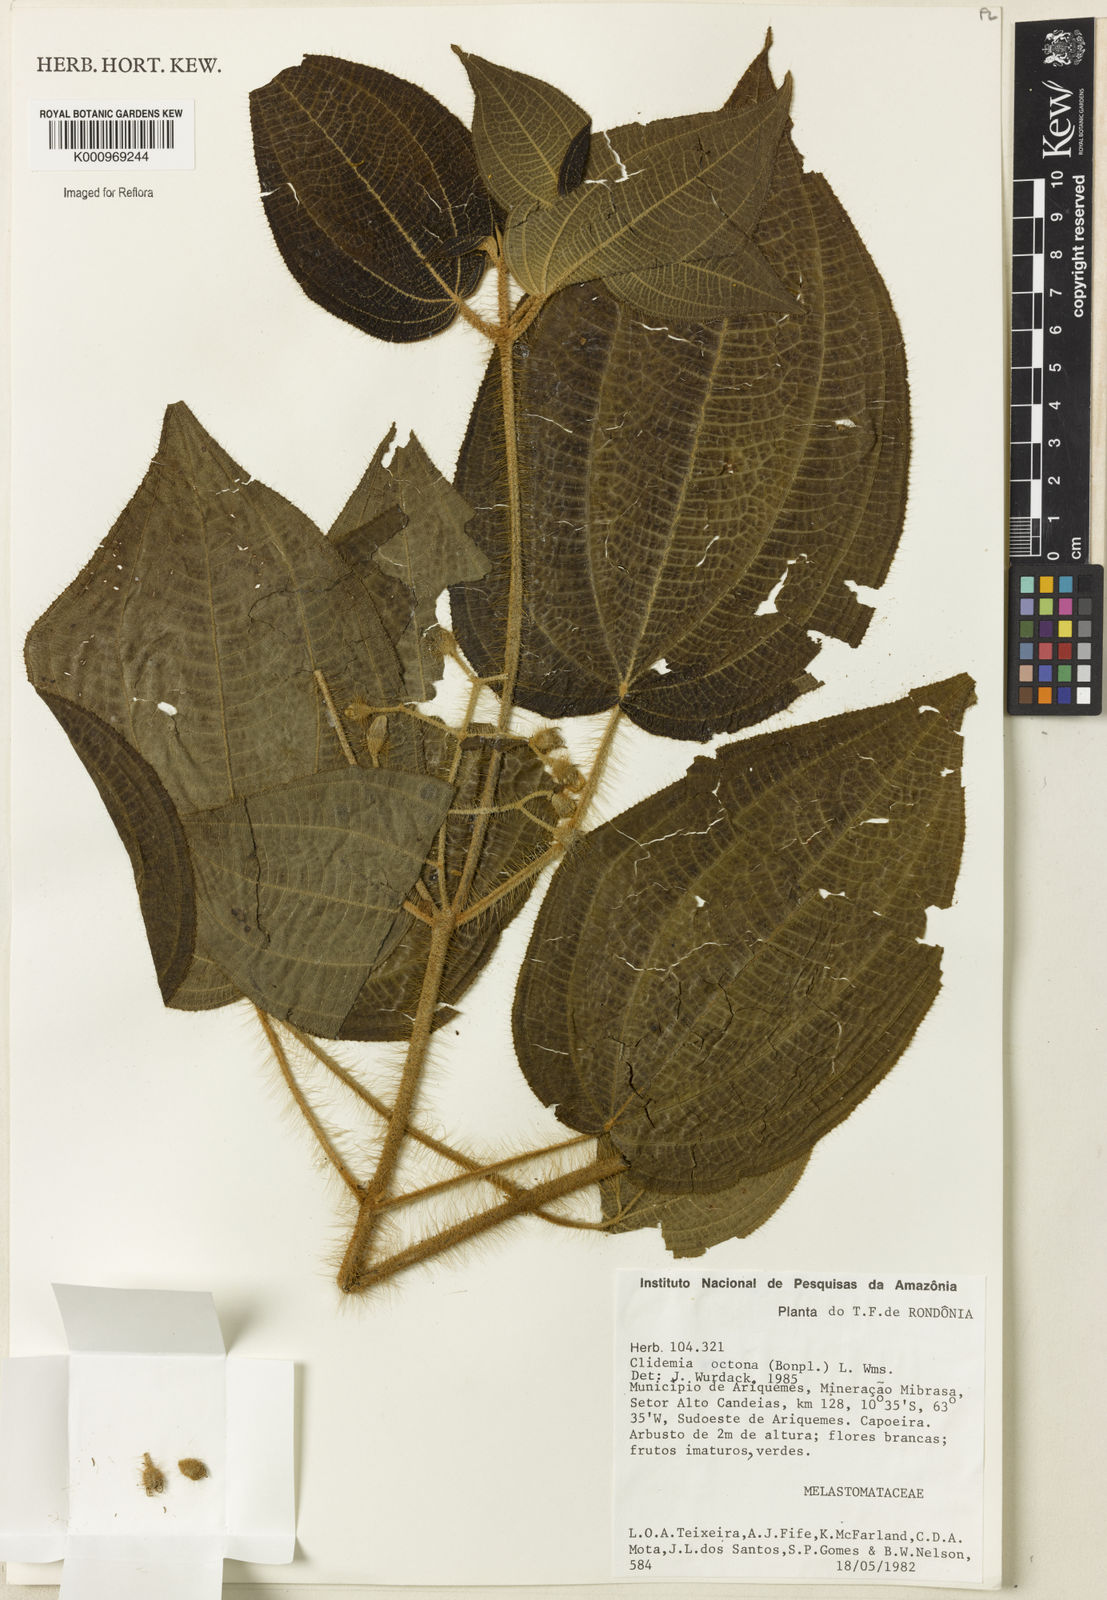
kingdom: Plantae
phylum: Tracheophyta
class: Magnoliopsida
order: Myrtales
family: Melastomataceae
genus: Miconia
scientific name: Miconia octona
